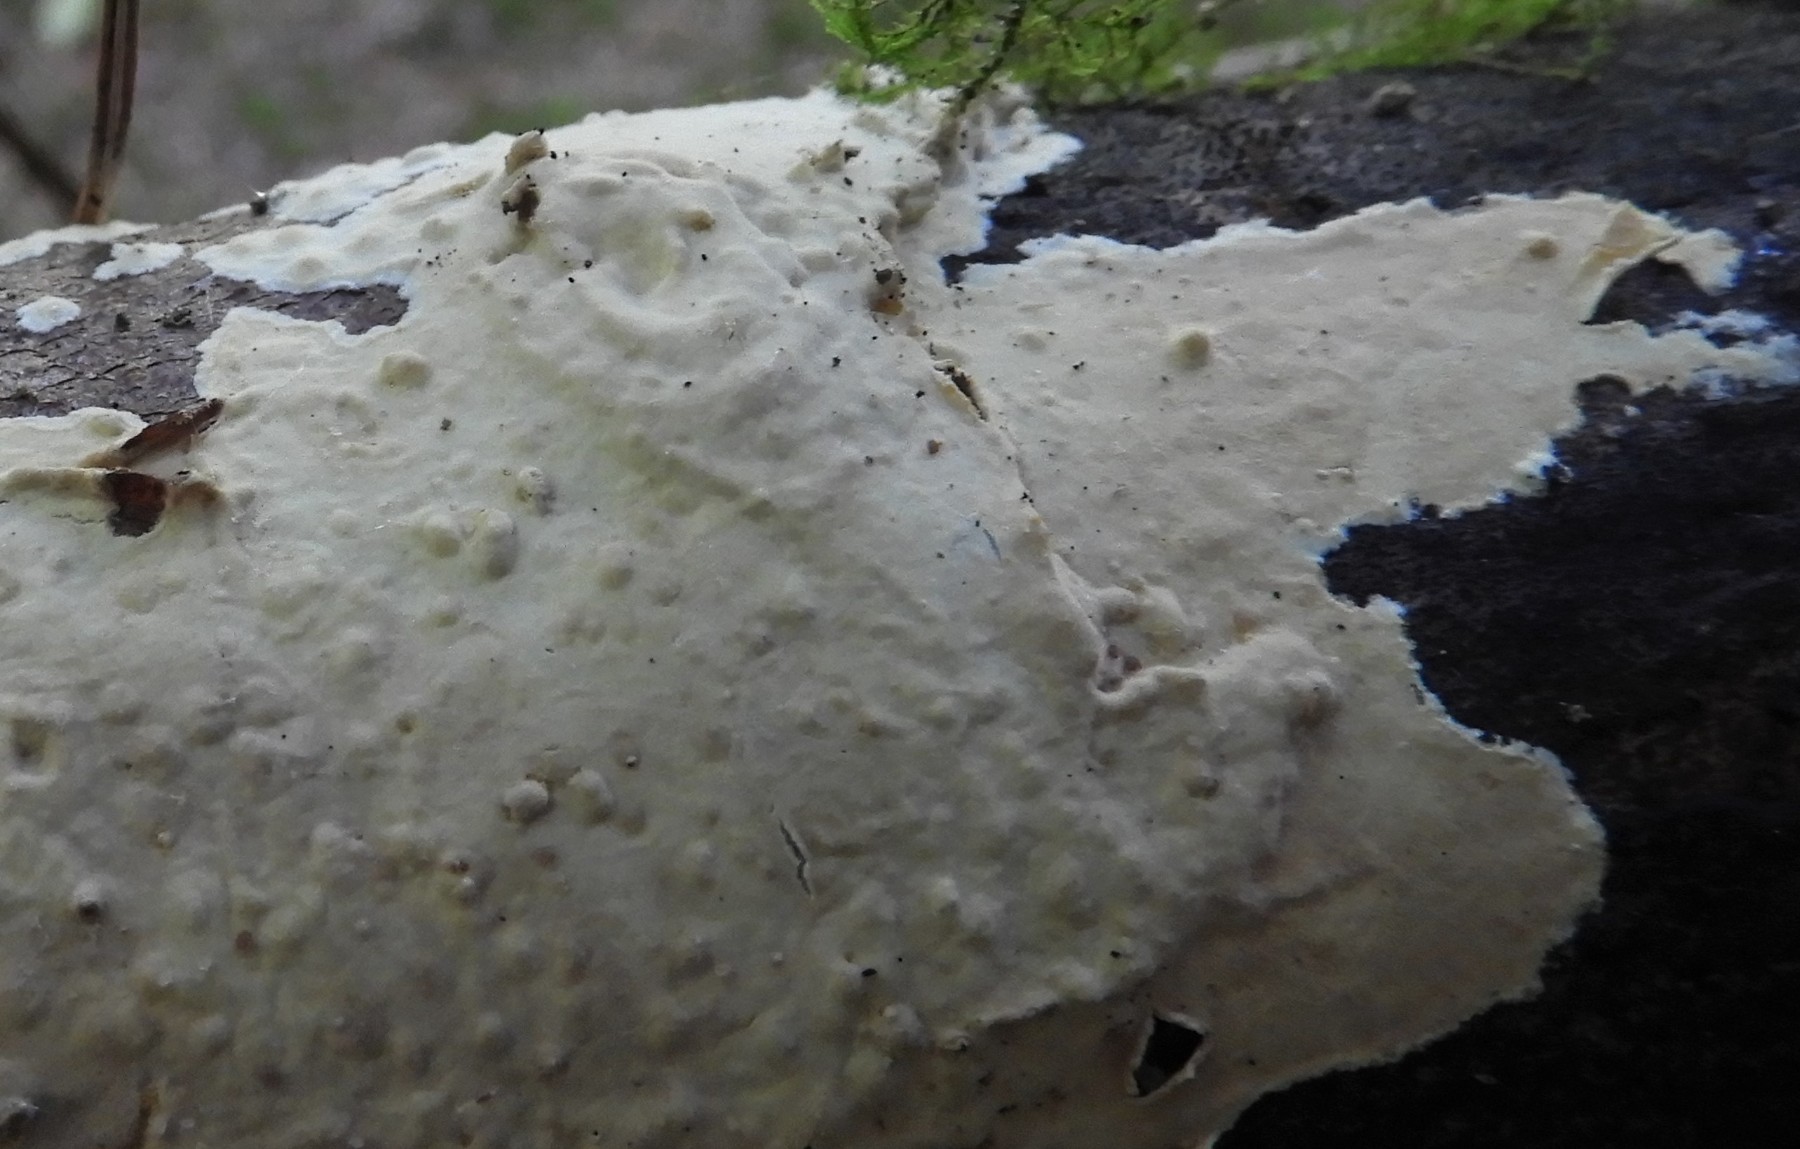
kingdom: Fungi
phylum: Basidiomycota
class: Agaricomycetes
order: Russulales
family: Peniophoraceae
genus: Scytinostroma
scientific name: Scytinostroma
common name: naftalinskorpe
